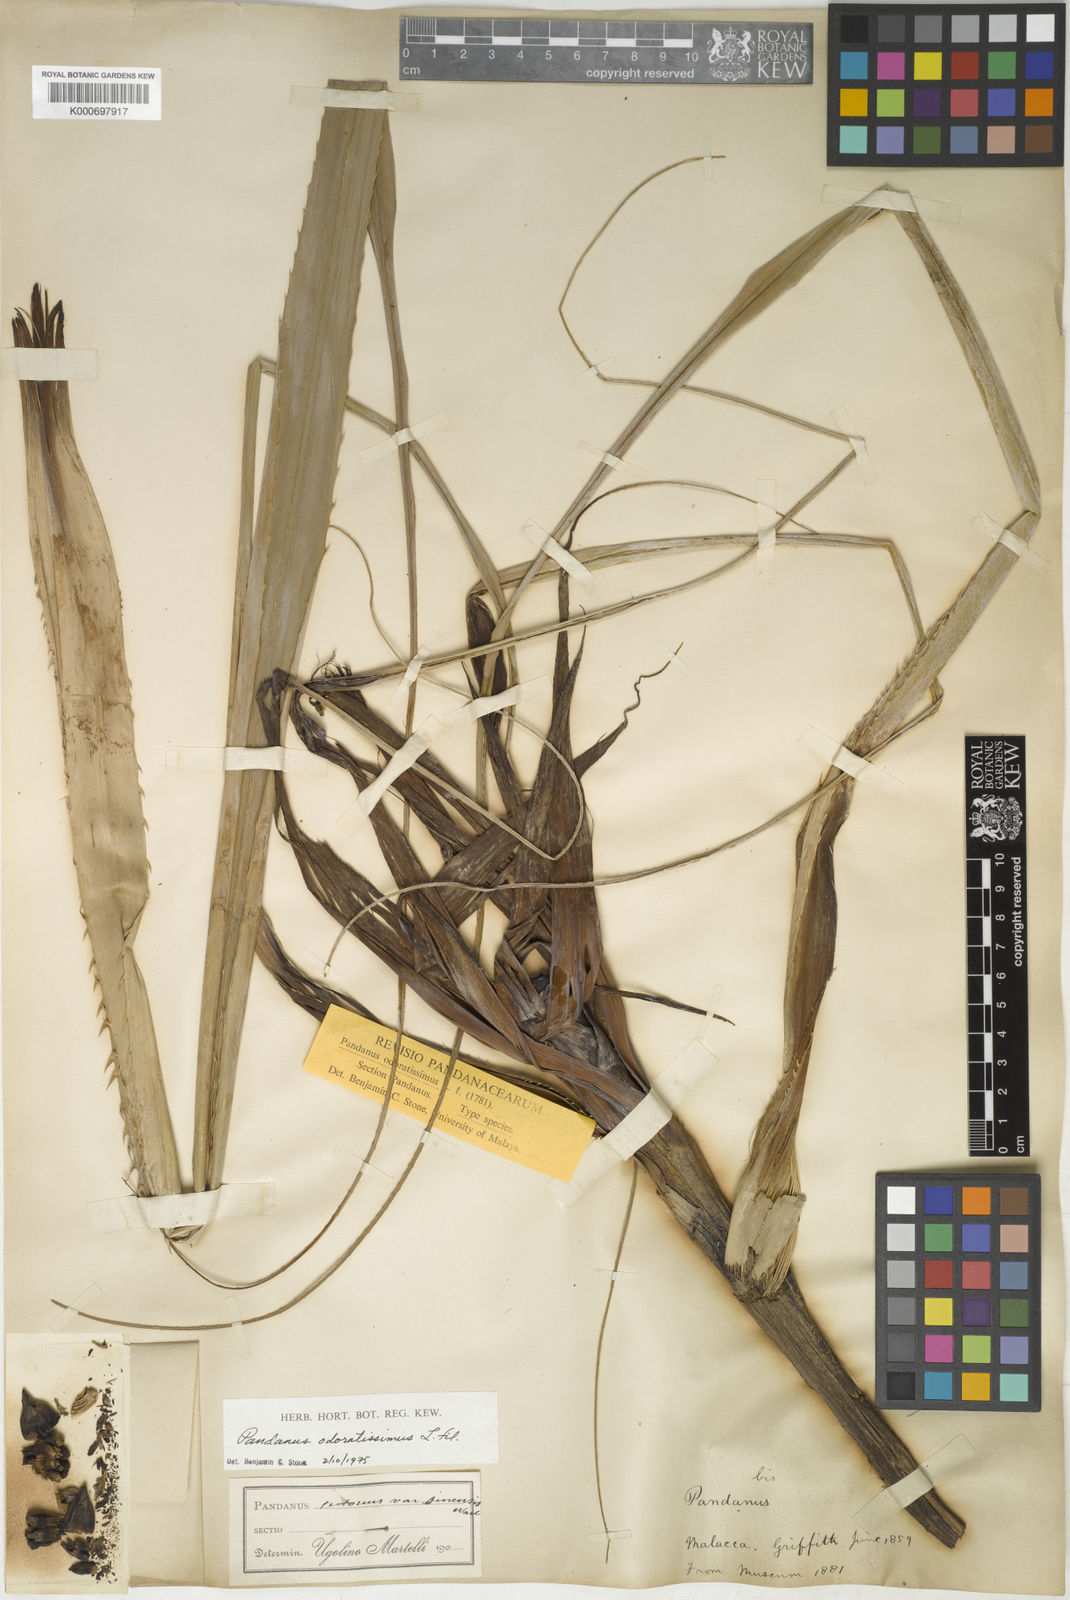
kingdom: Plantae
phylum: Tracheophyta
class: Liliopsida
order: Pandanales
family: Pandanaceae
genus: Pandanus
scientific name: Pandanus odorifer
